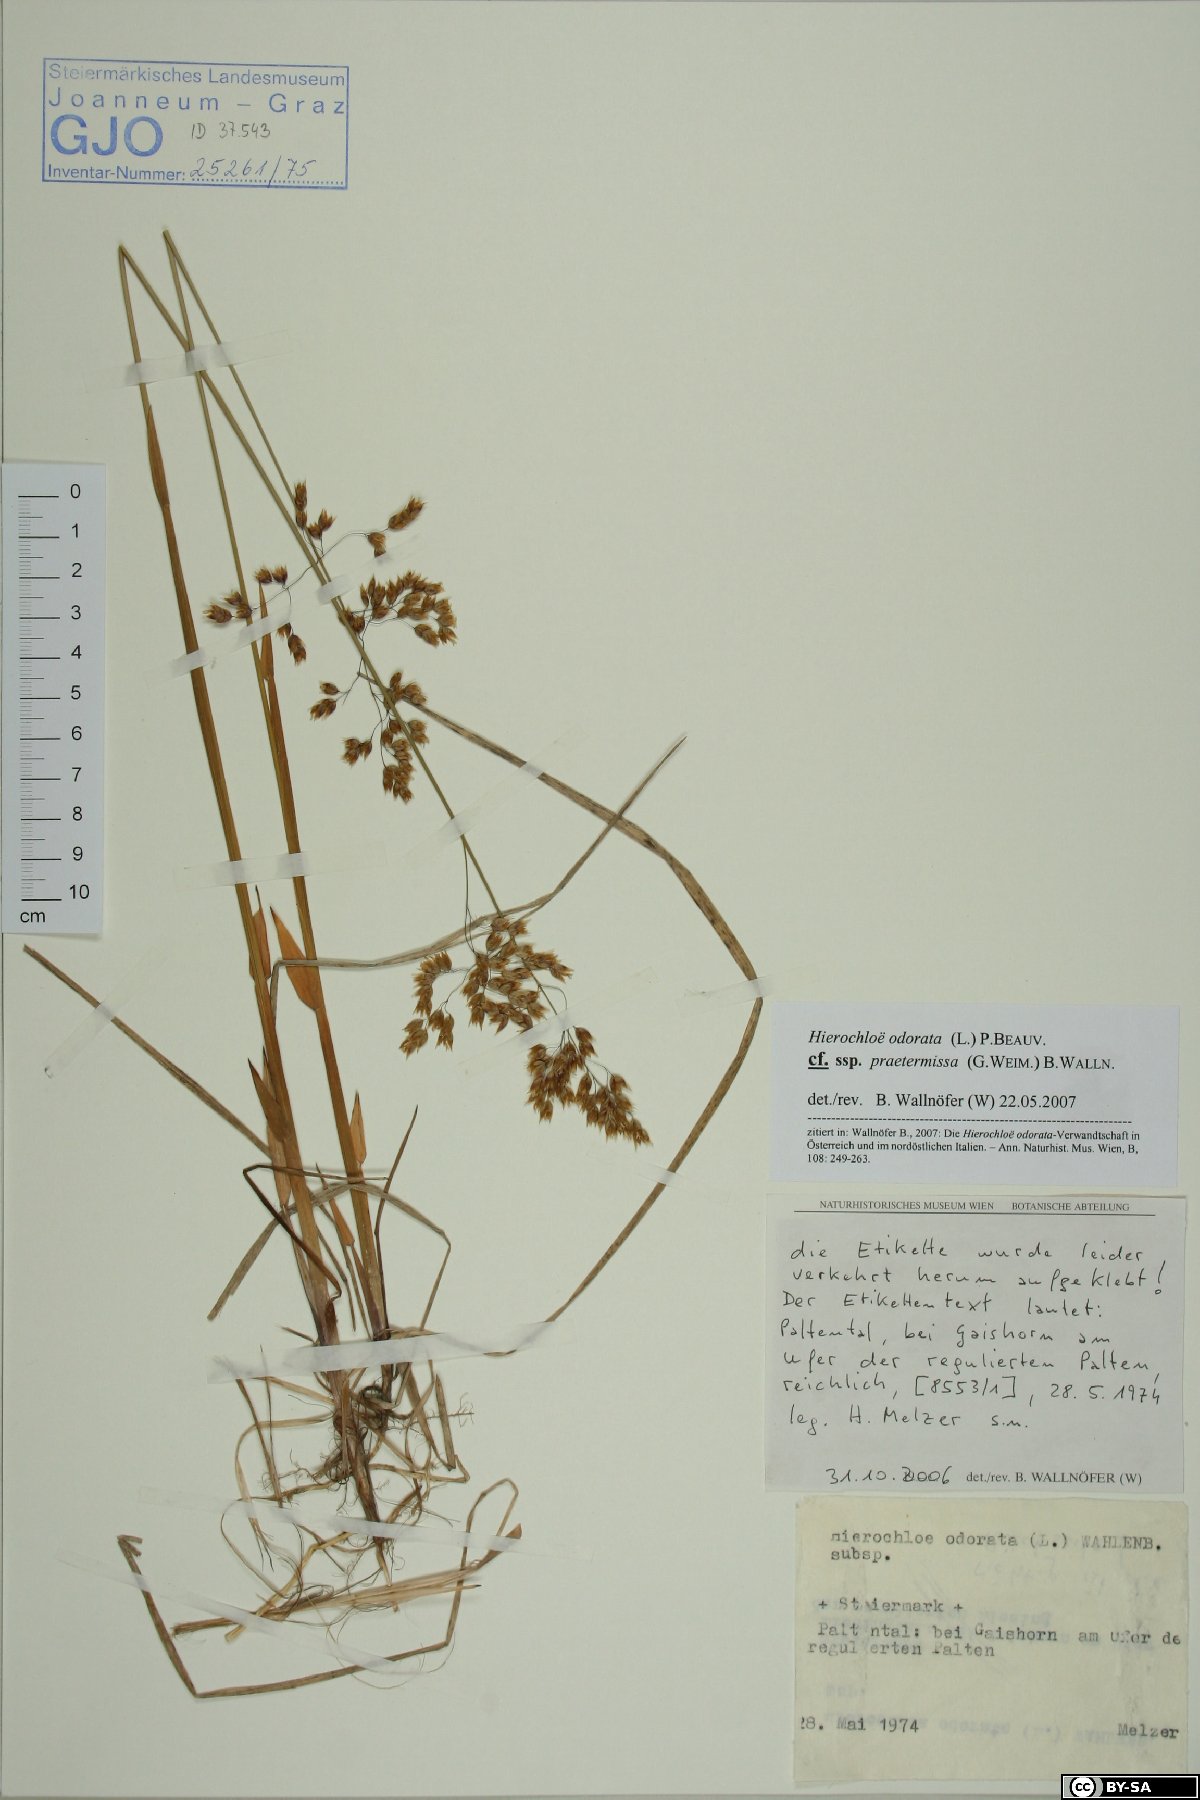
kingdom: Plantae
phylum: Tracheophyta
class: Liliopsida
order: Poales
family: Poaceae
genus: Anthoxanthum
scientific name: Anthoxanthum nitens
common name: Holy grass
